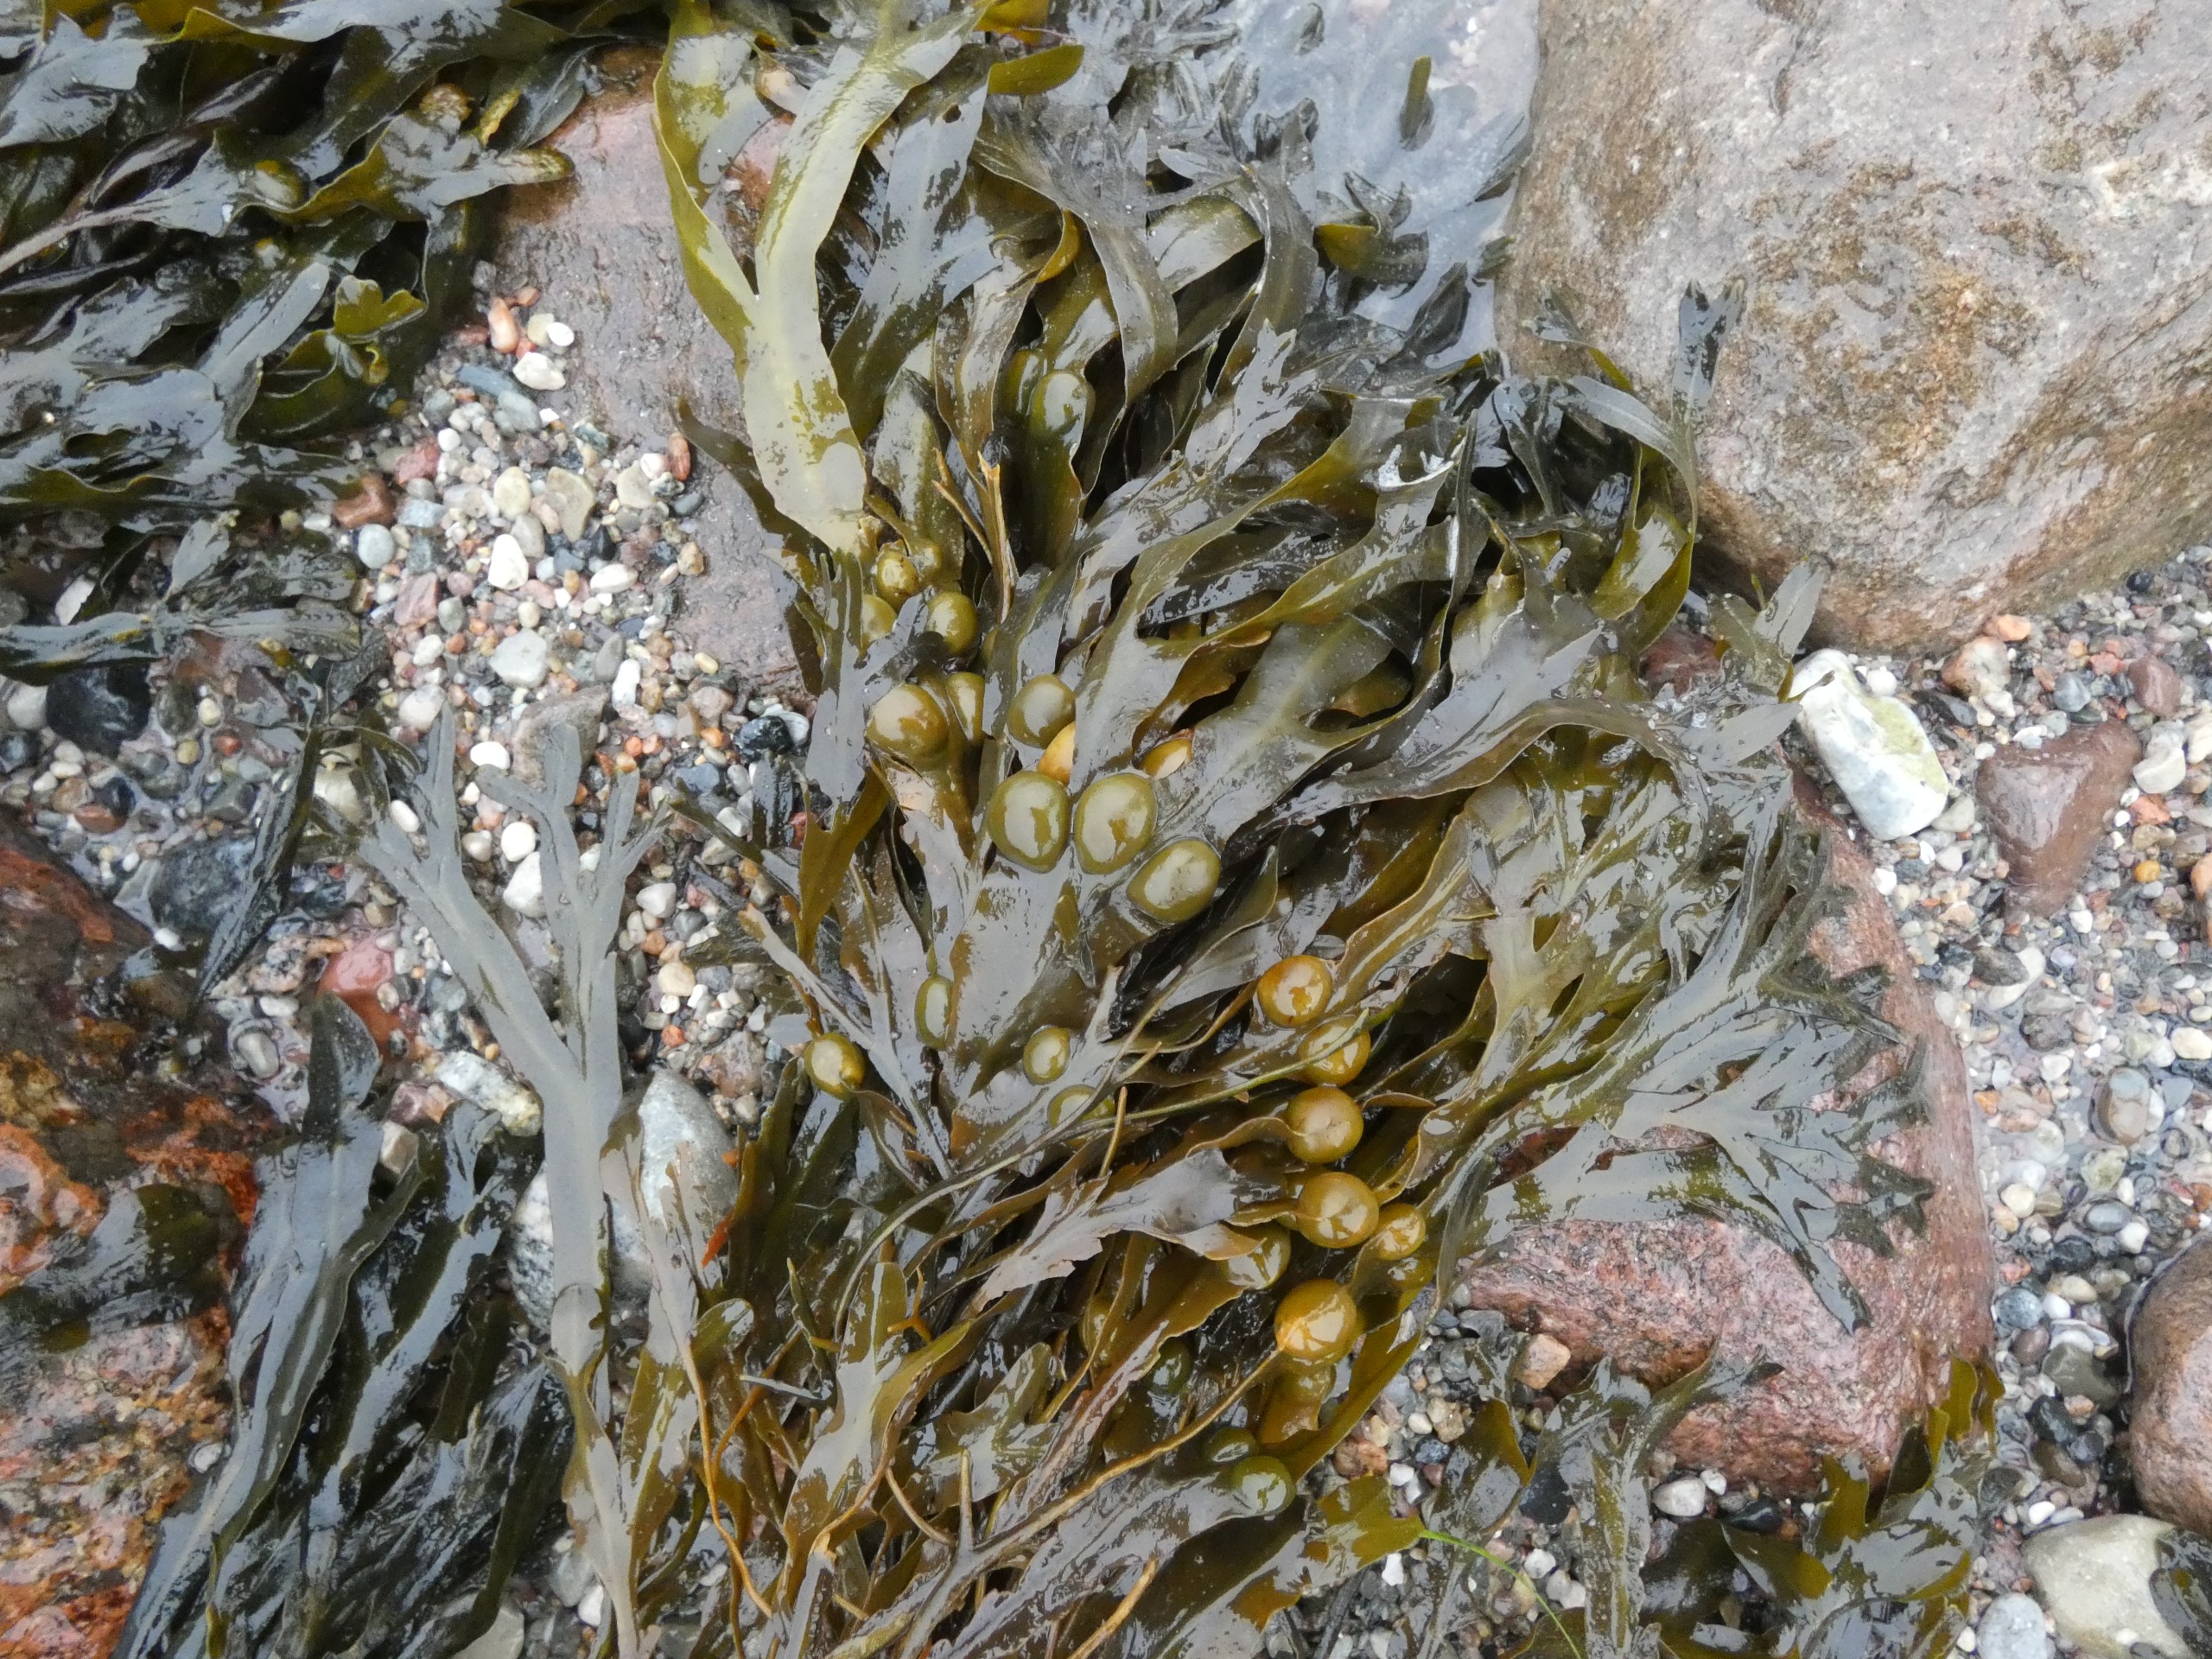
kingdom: Chromista
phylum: Ochrophyta
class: Phaeophyceae
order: Fucales
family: Fucaceae
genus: Fucus
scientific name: Fucus vesiculosus
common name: Blæretang
